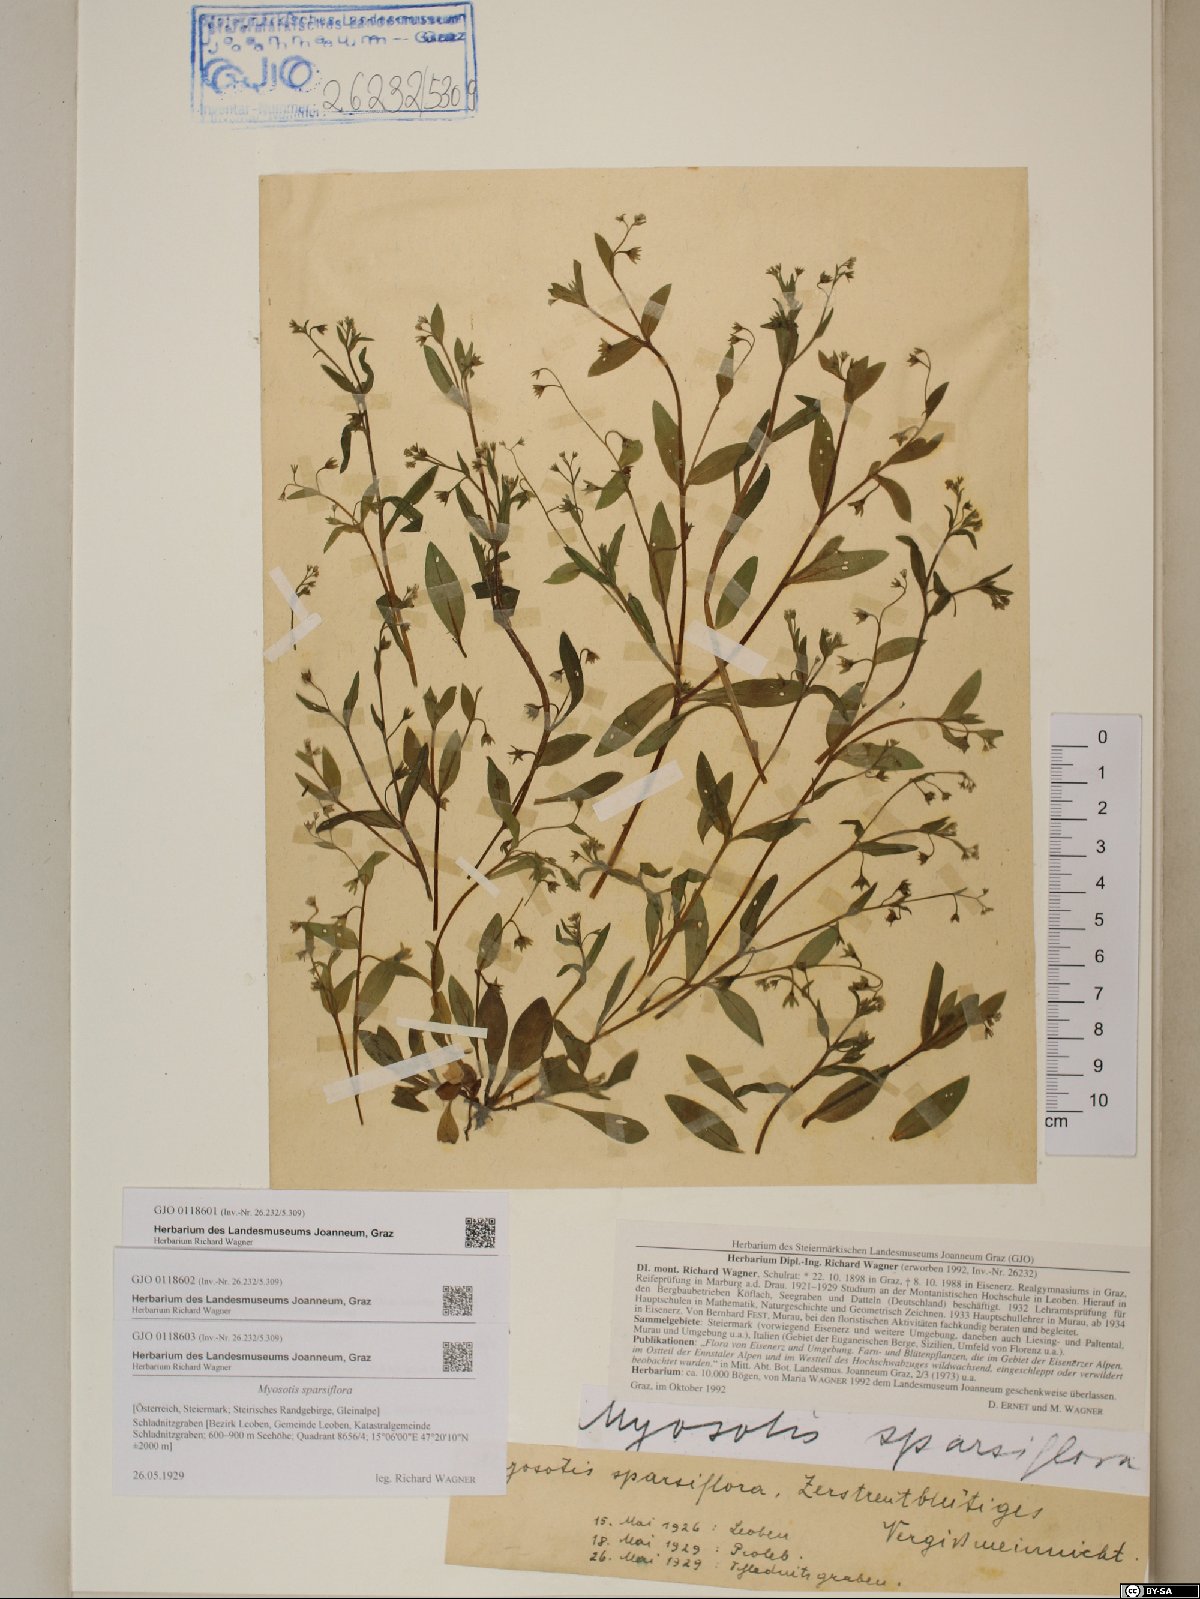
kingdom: Plantae
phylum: Tracheophyta
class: Magnoliopsida
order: Boraginales
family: Boraginaceae
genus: Myosotis
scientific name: Myosotis sparsiflora
